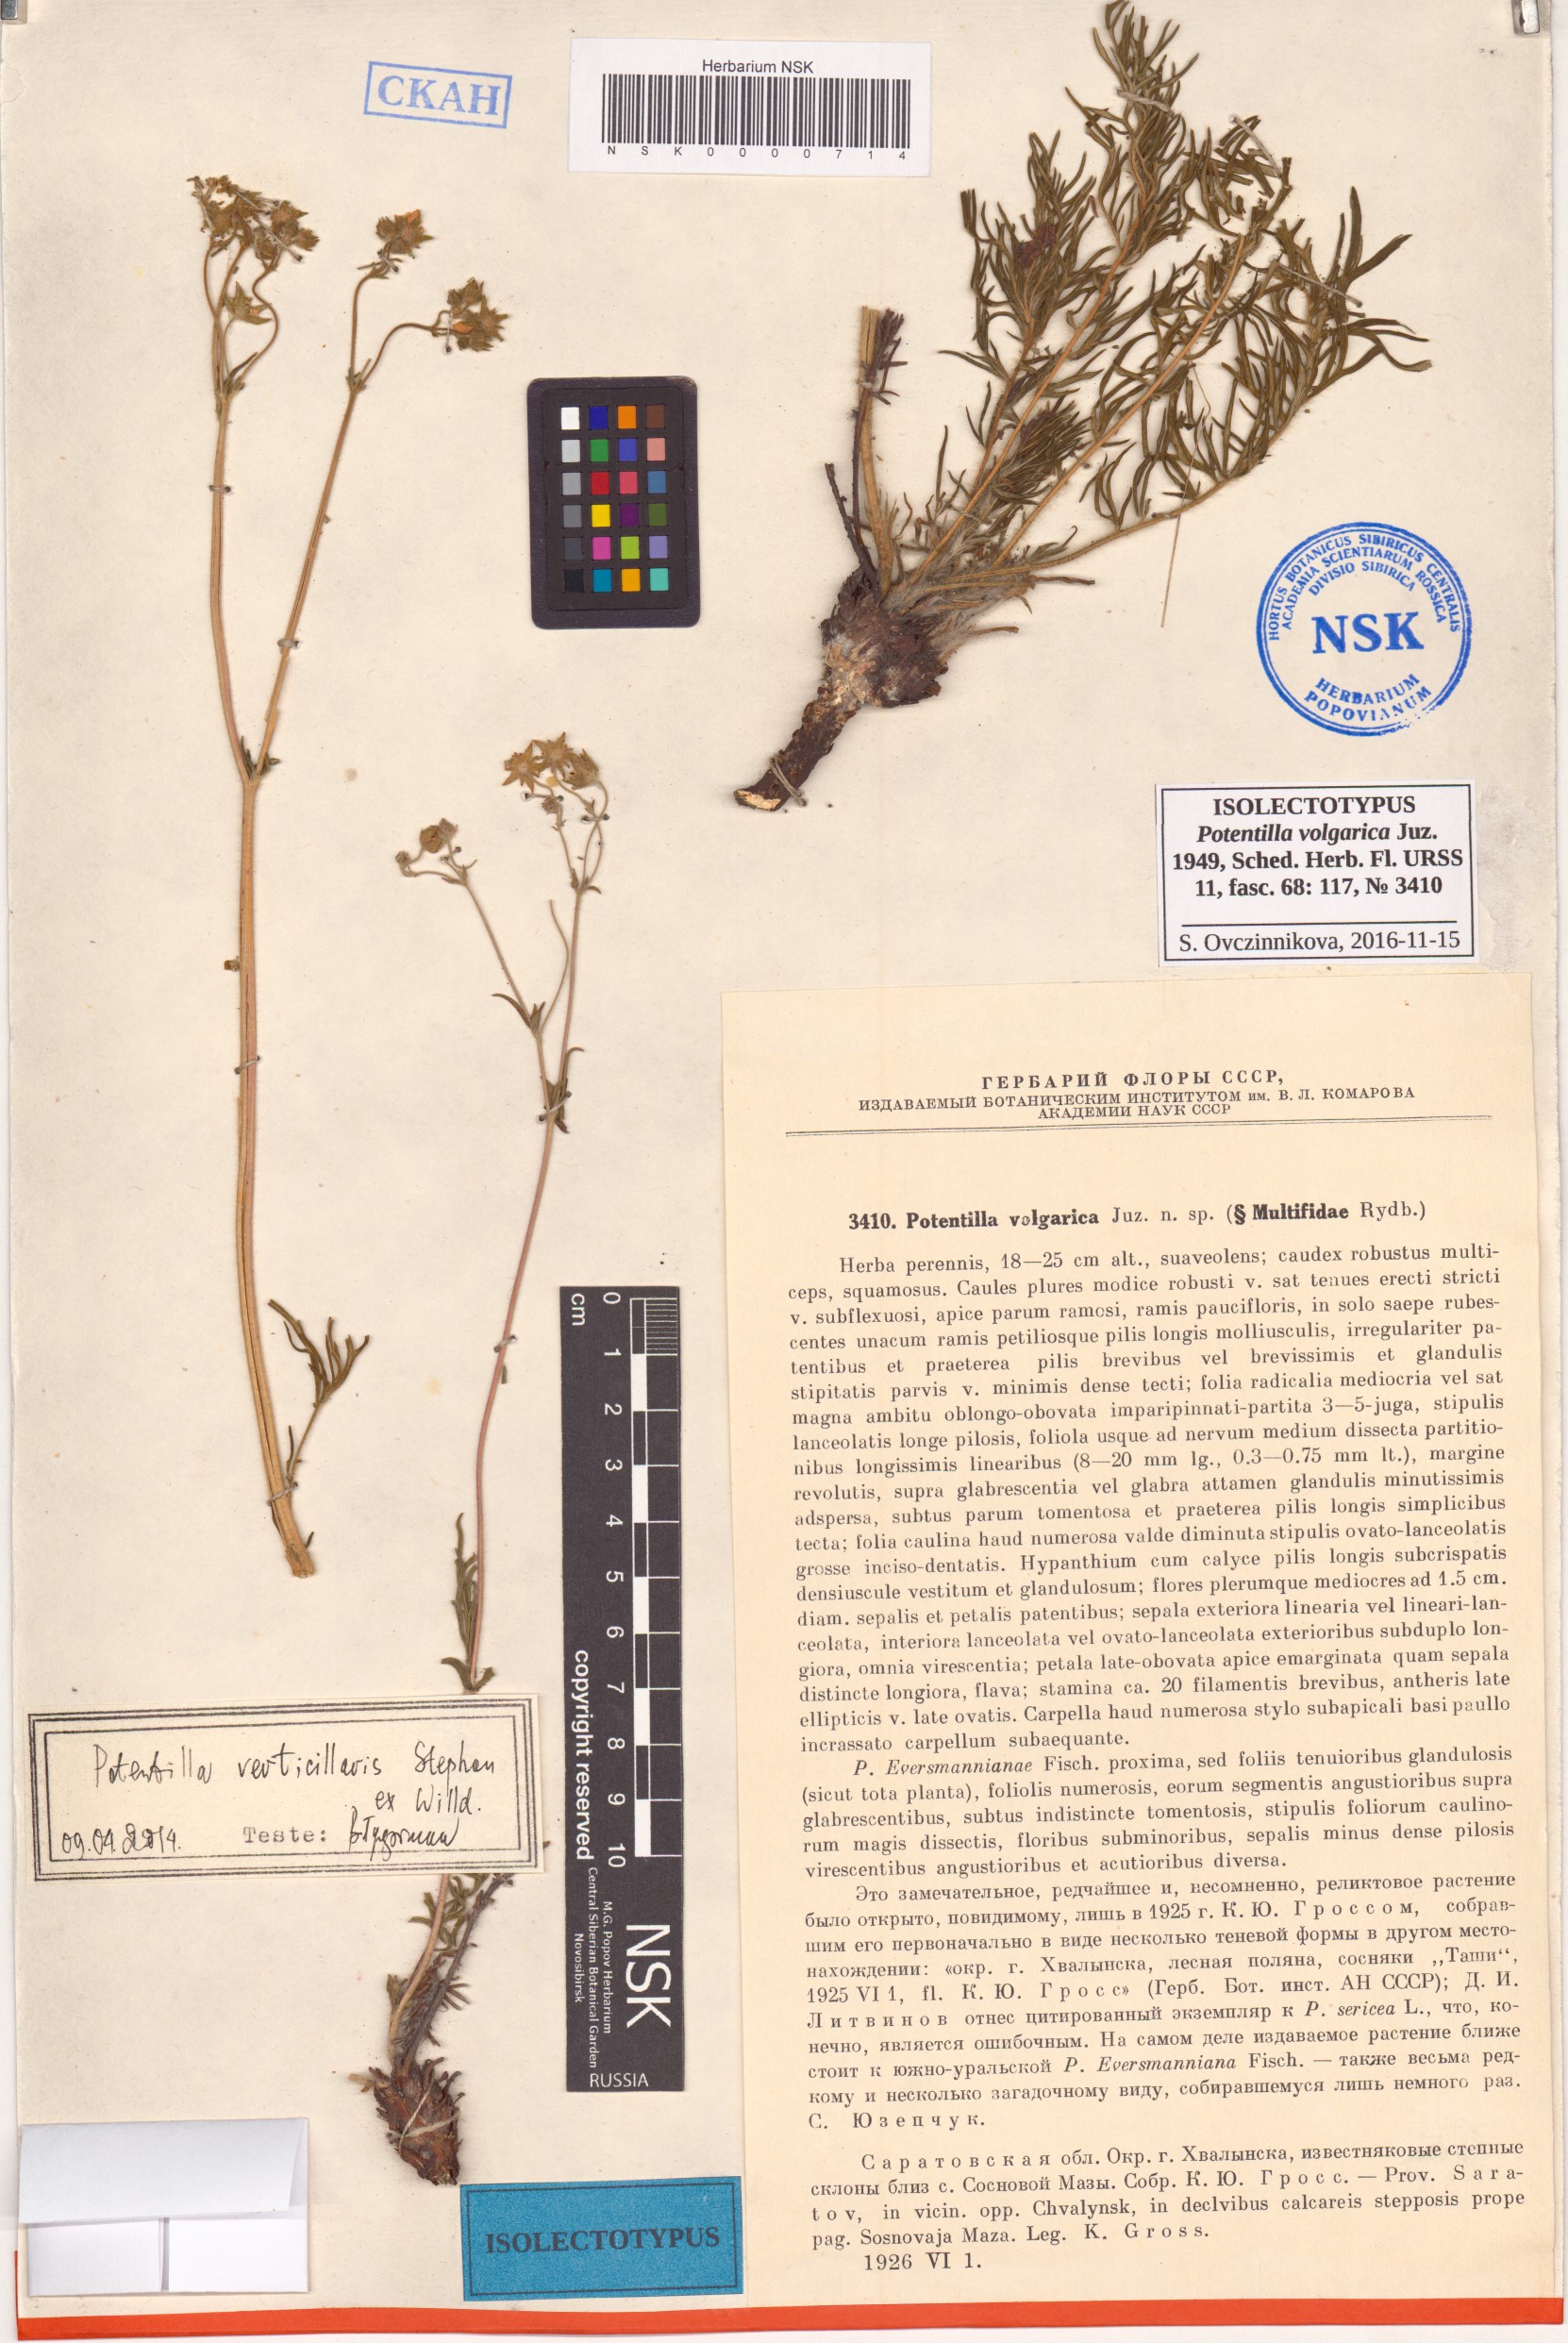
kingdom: Plantae
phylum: Tracheophyta
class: Magnoliopsida
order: Rosales
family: Rosaceae
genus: Potentilla
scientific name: Potentilla volgarica
